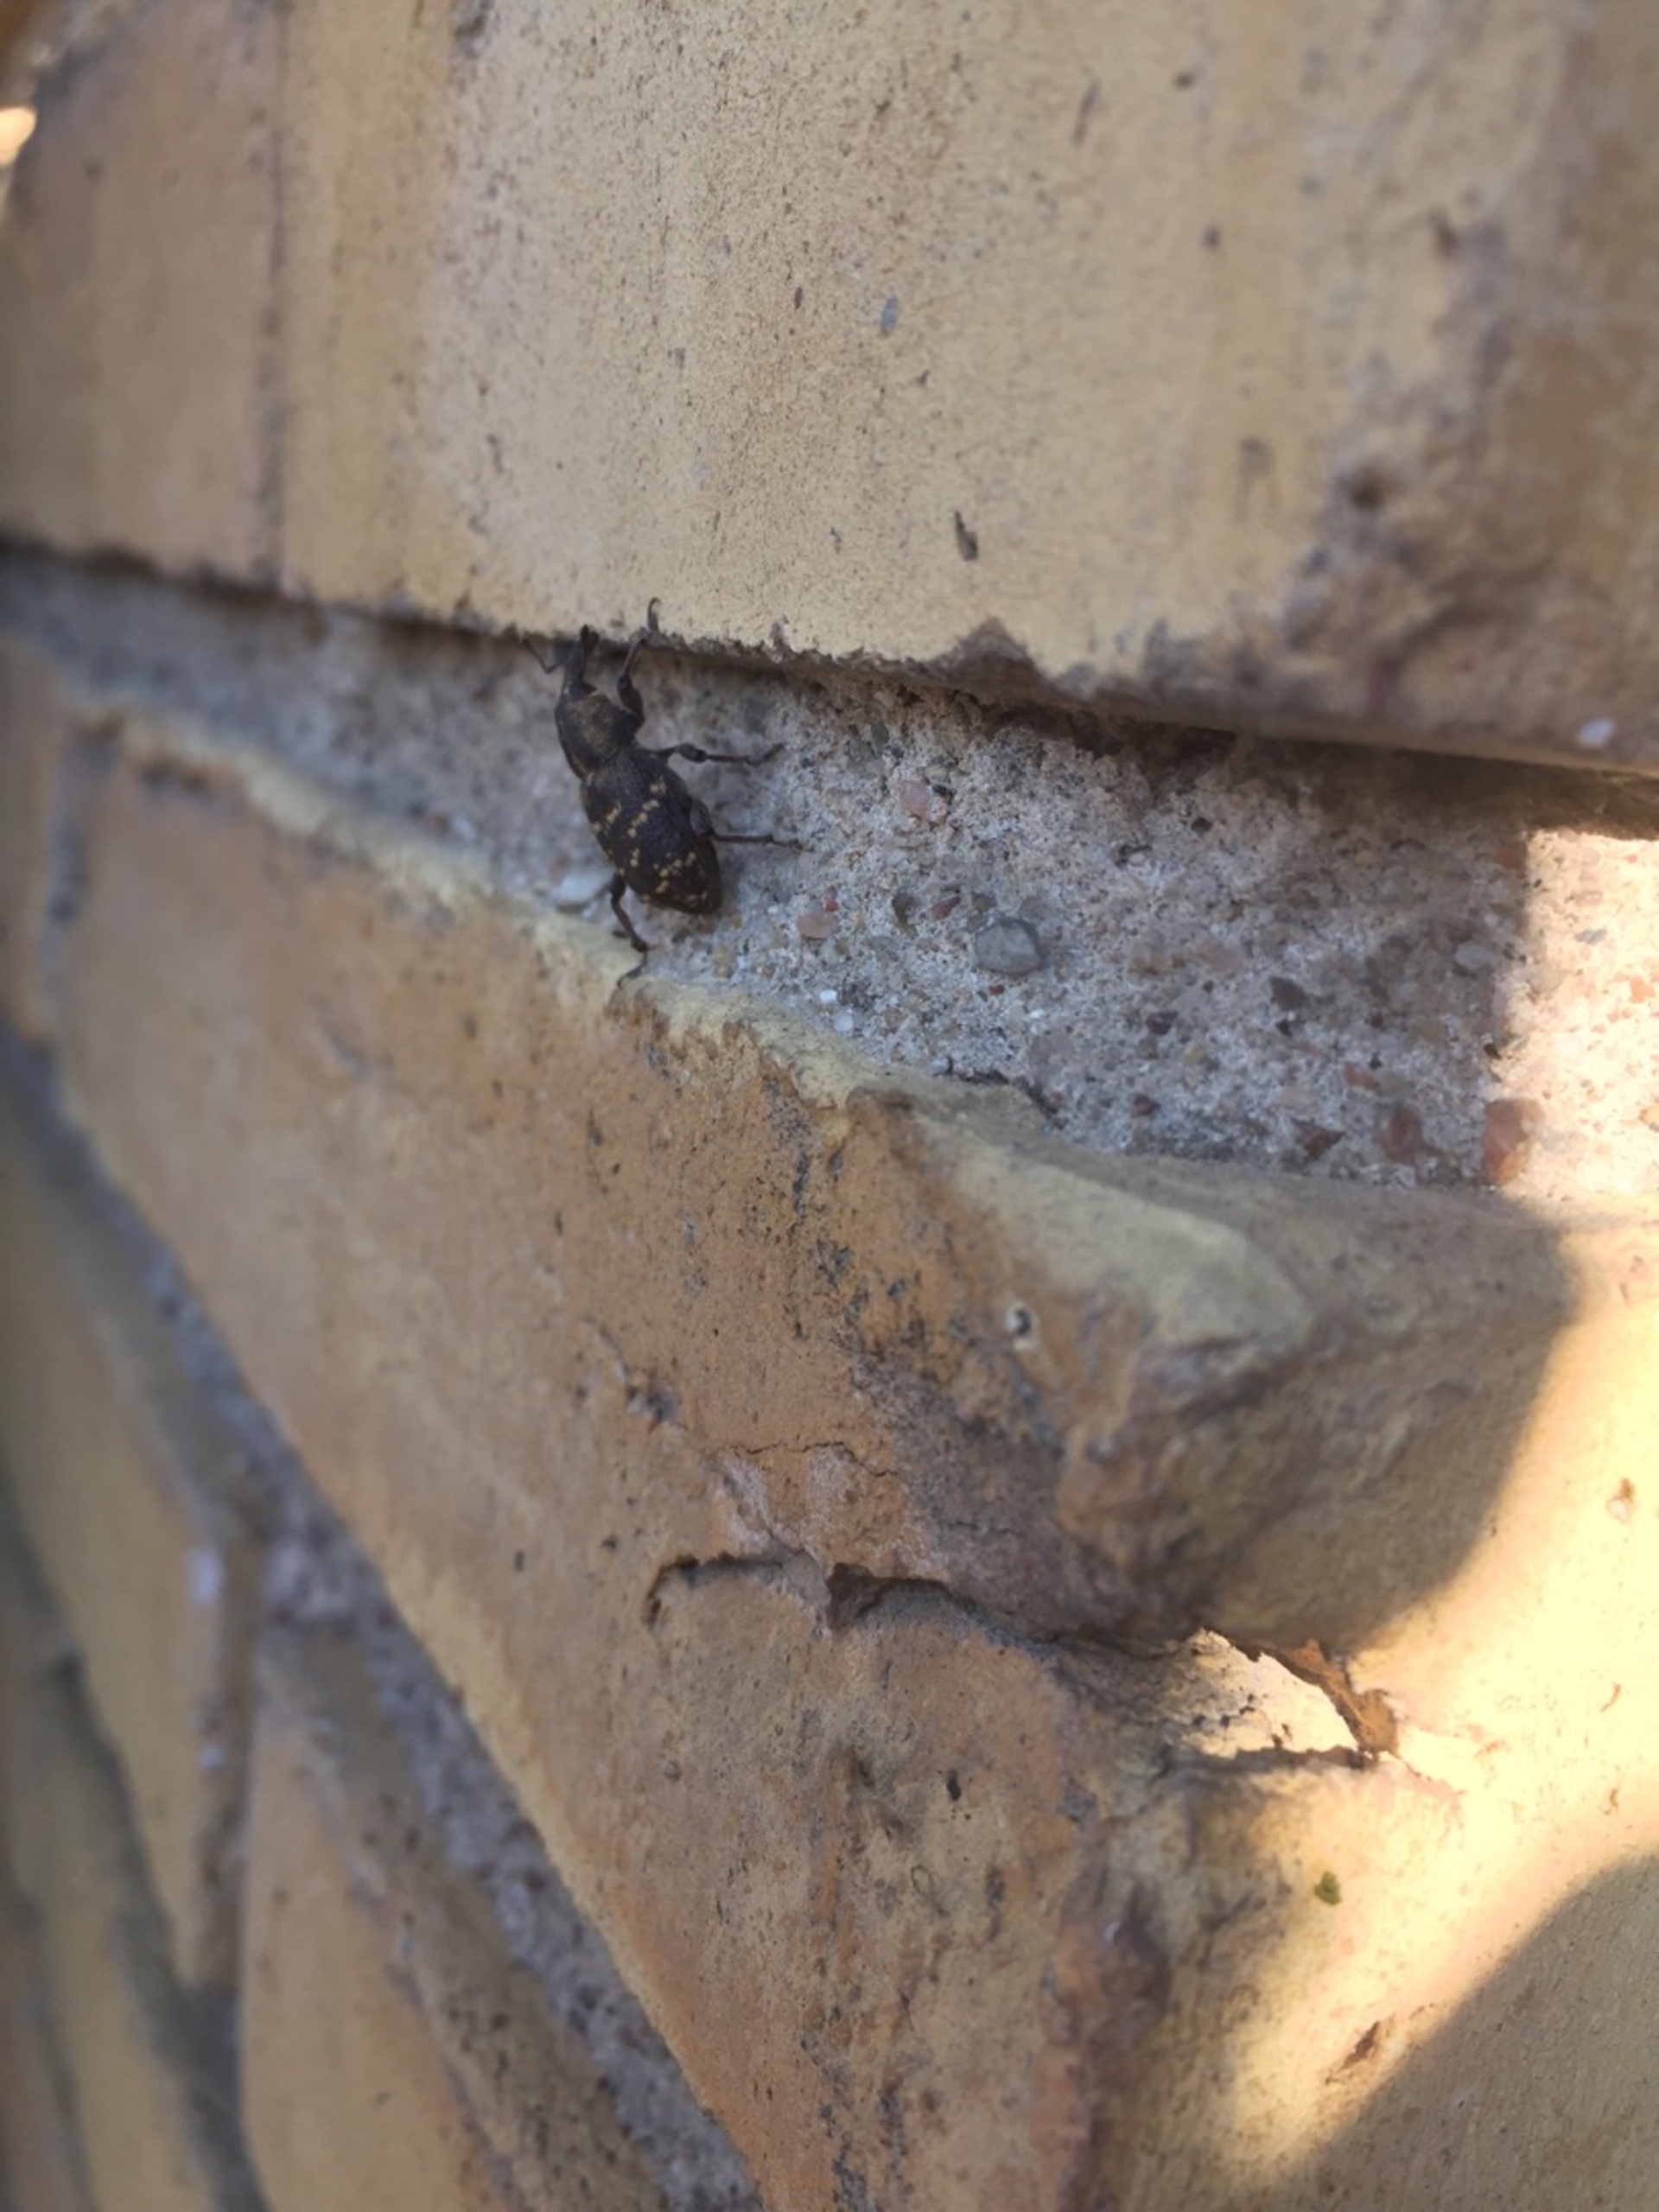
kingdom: Animalia
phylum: Arthropoda
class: Insecta
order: Coleoptera
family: Curculionidae
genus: Hylobius
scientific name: Hylobius abietis
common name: Stor nåletræsnudebille
